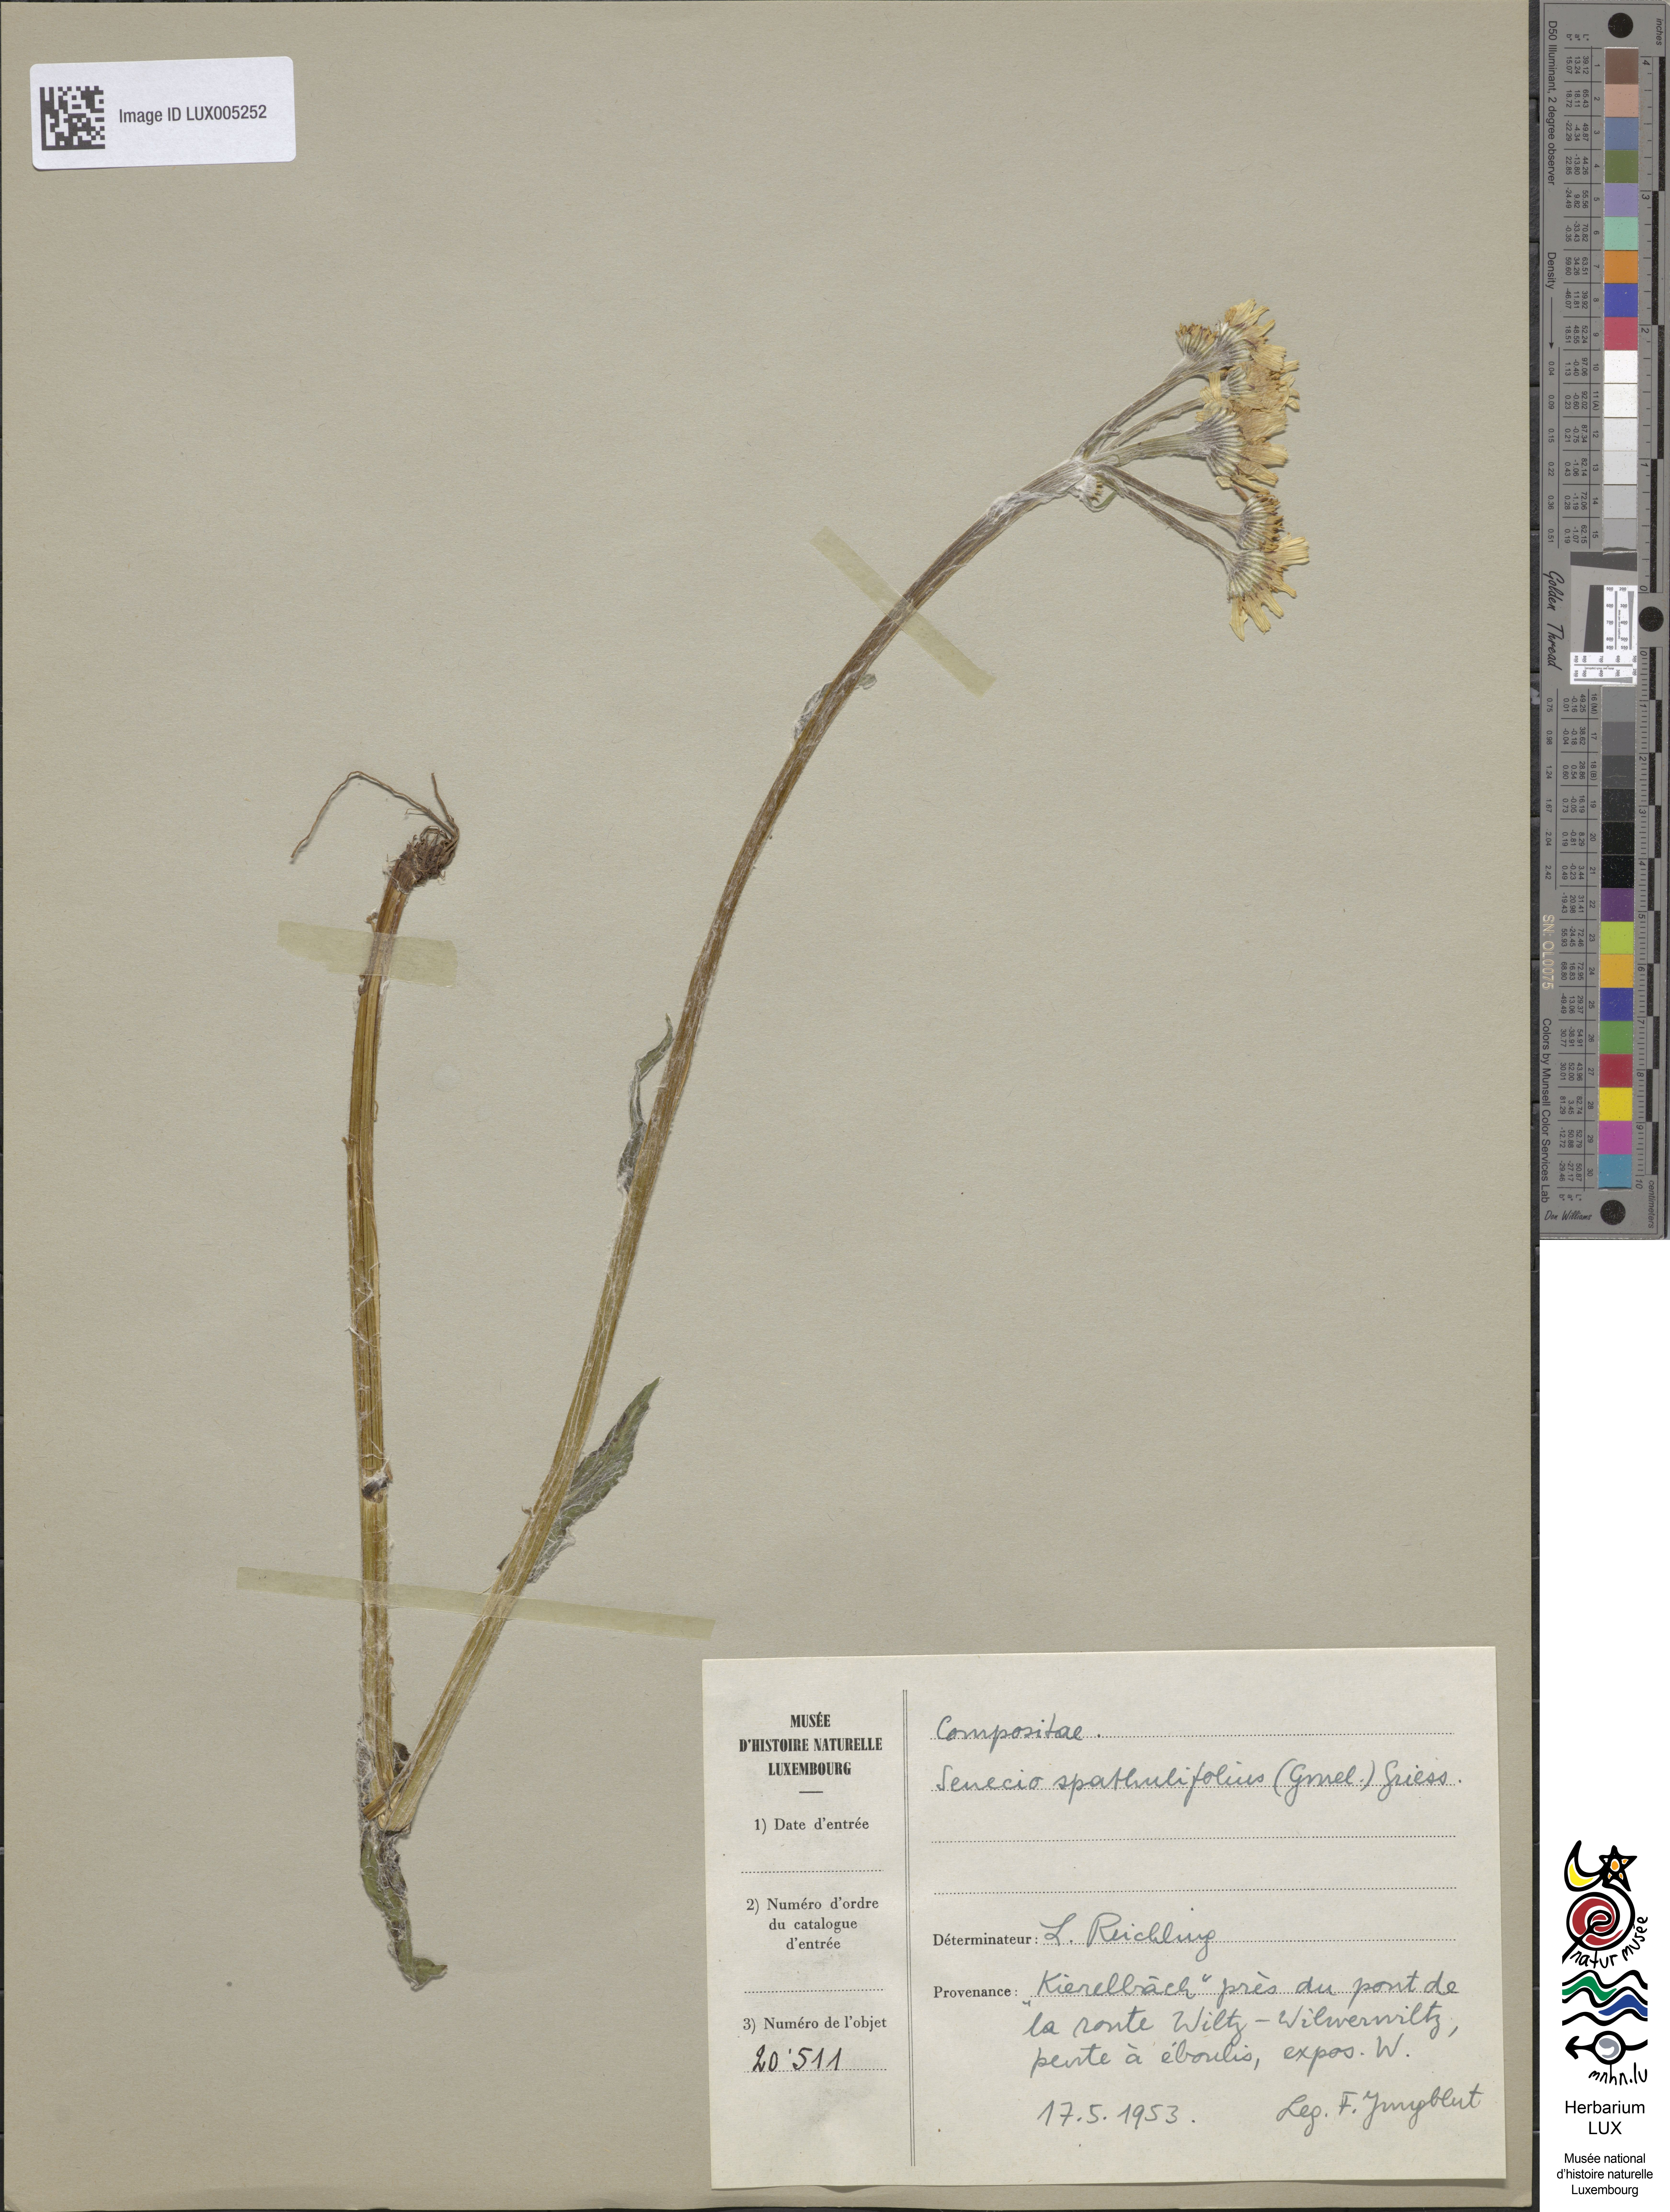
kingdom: Plantae
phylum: Tracheophyta
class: Magnoliopsida
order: Asterales
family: Asteraceae
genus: Tephroseris
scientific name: Tephroseris helenitis
